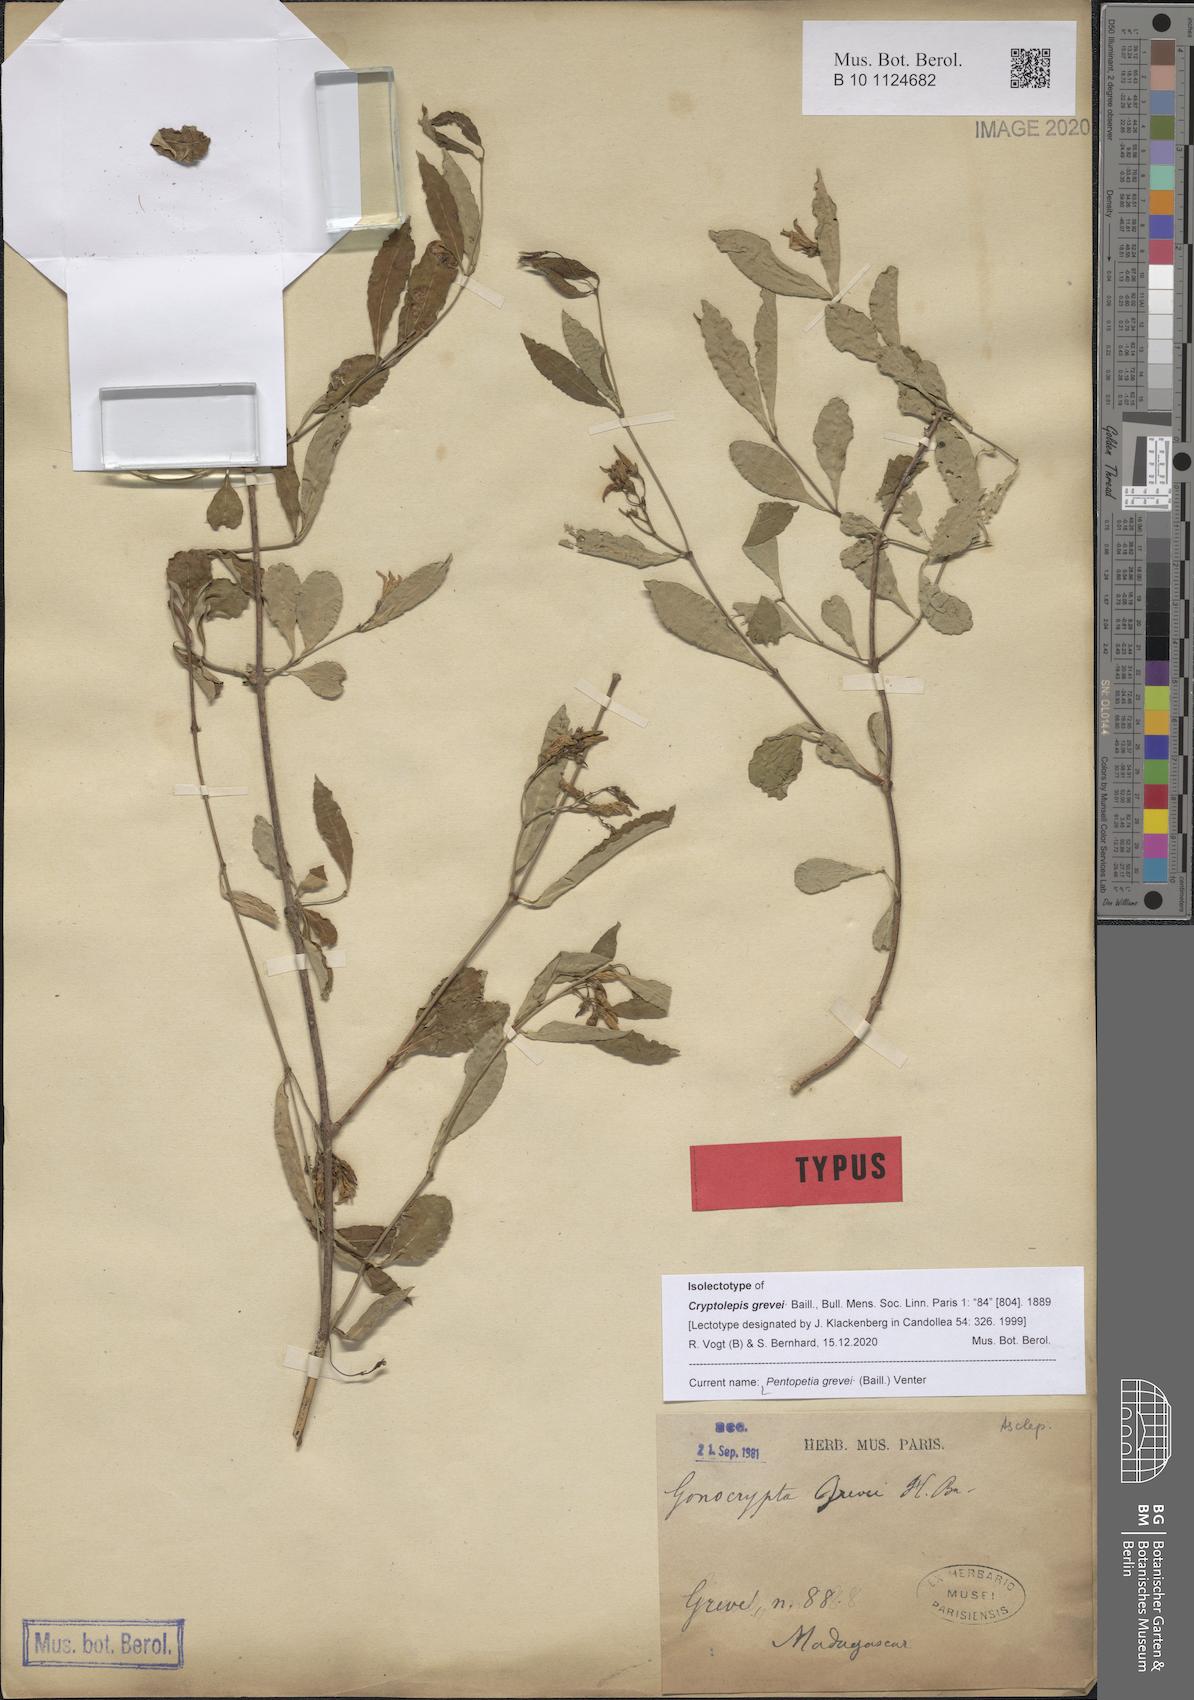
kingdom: Plantae
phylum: Tracheophyta
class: Magnoliopsida
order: Gentianales
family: Apocynaceae
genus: Pentopetia
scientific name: Pentopetia grevei
